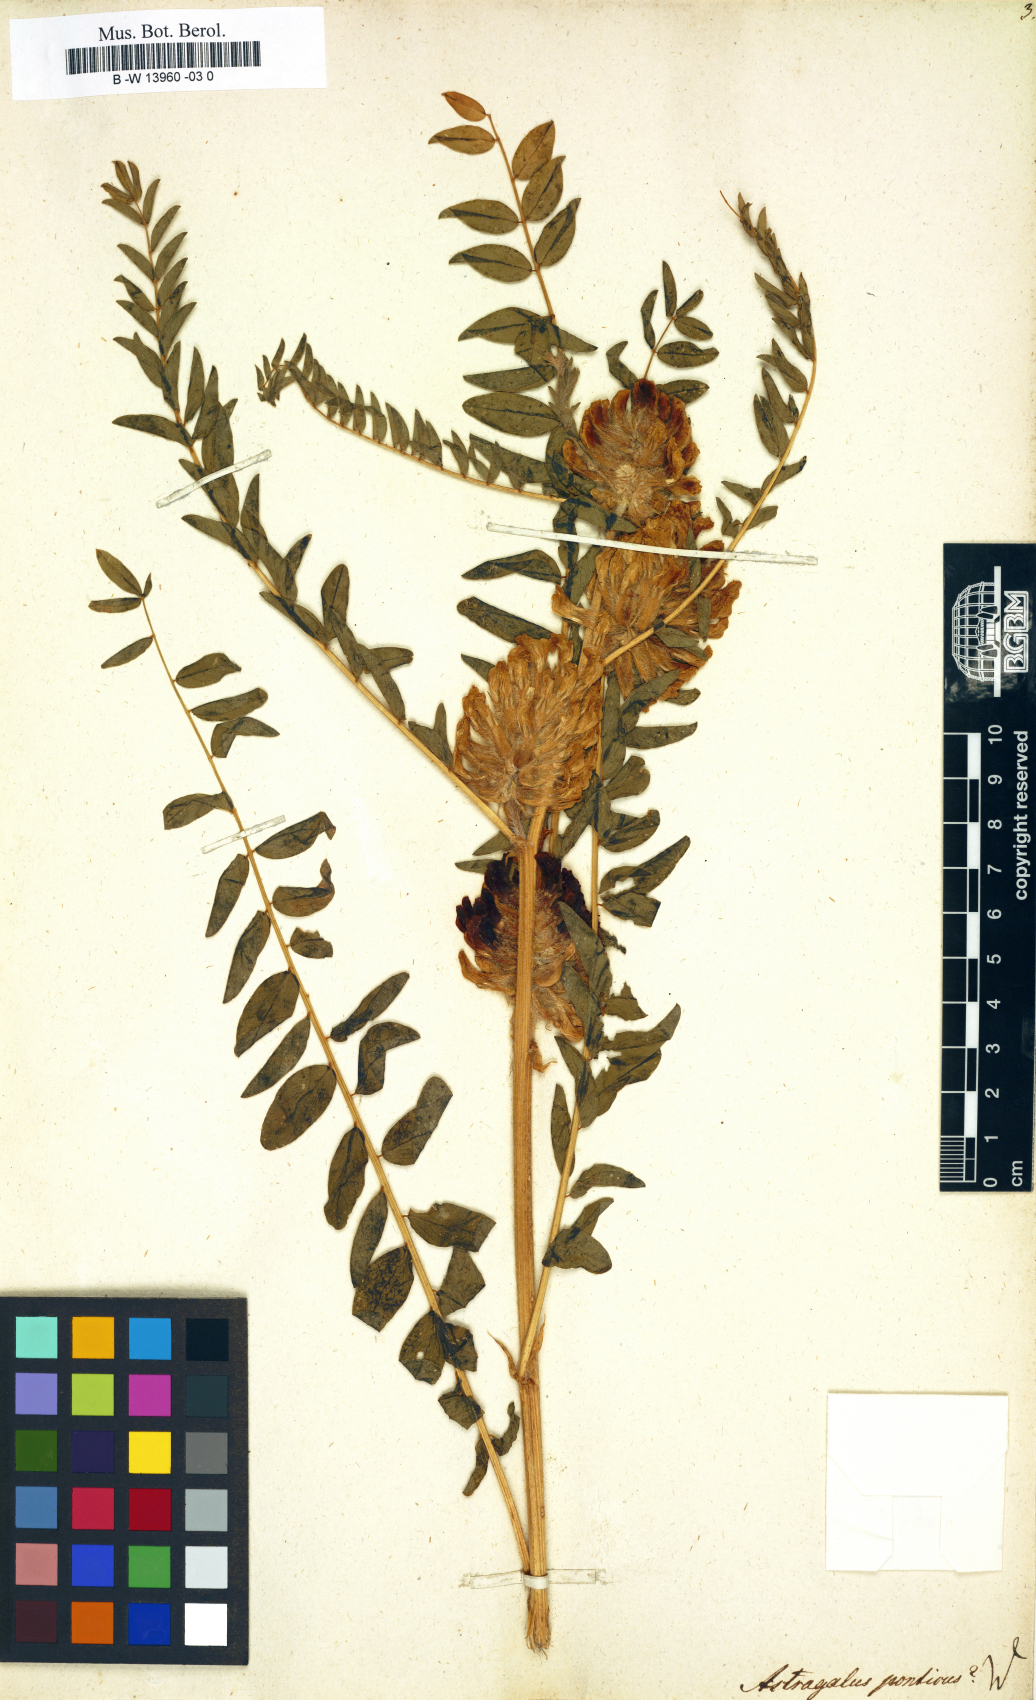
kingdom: Plantae
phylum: Tracheophyta
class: Magnoliopsida
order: Fabales
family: Fabaceae
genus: Astragalus
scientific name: Astragalus ponticus
